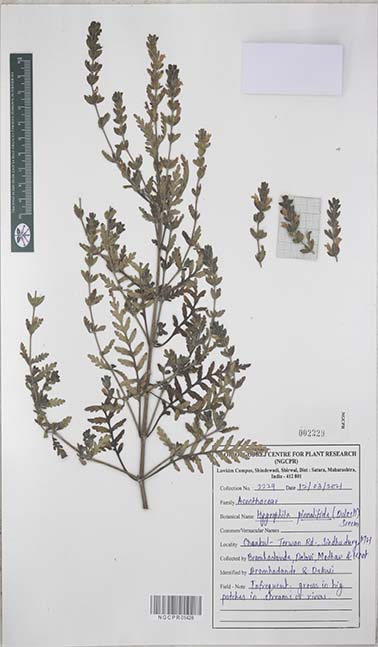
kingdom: Plantae
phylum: Tracheophyta
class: Magnoliopsida
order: Lamiales
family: Acanthaceae
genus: Hygrophila
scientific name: Hygrophila pinnatifida
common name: Indian swampweed
